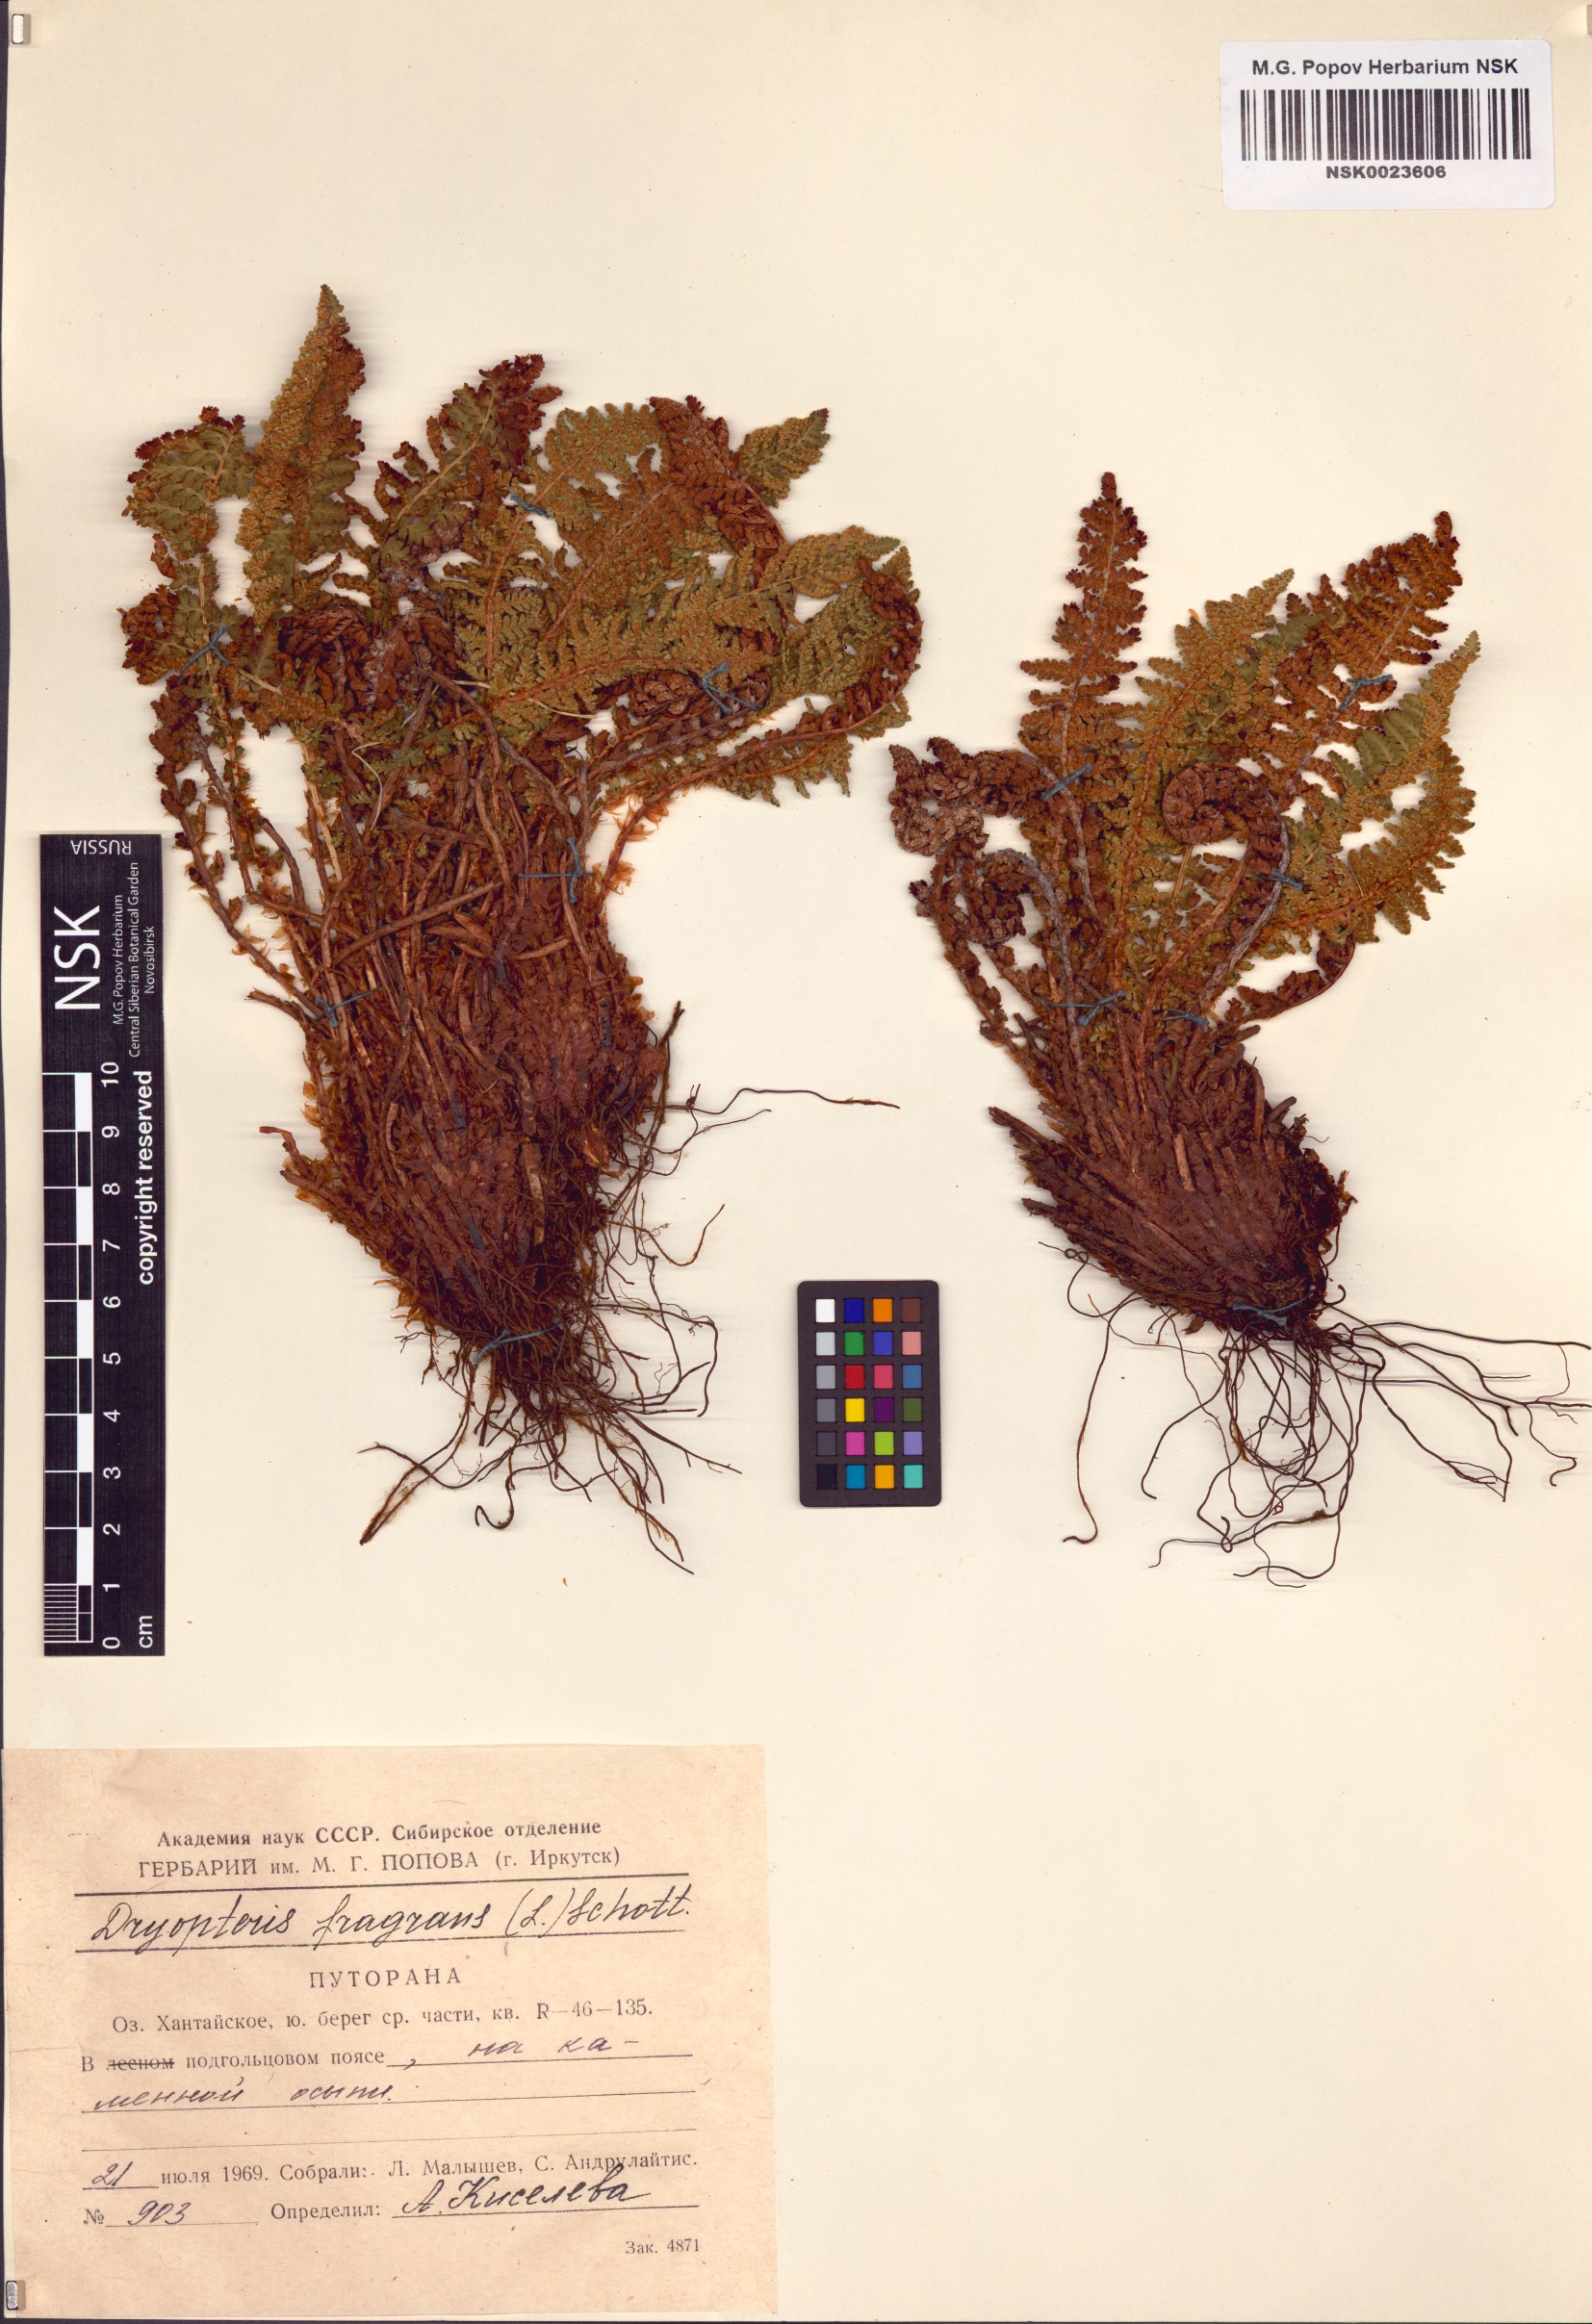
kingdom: Plantae
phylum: Tracheophyta
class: Polypodiopsida
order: Polypodiales
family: Dryopteridaceae
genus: Dryopteris
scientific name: Dryopteris fragrans
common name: Fragrant wood fern
